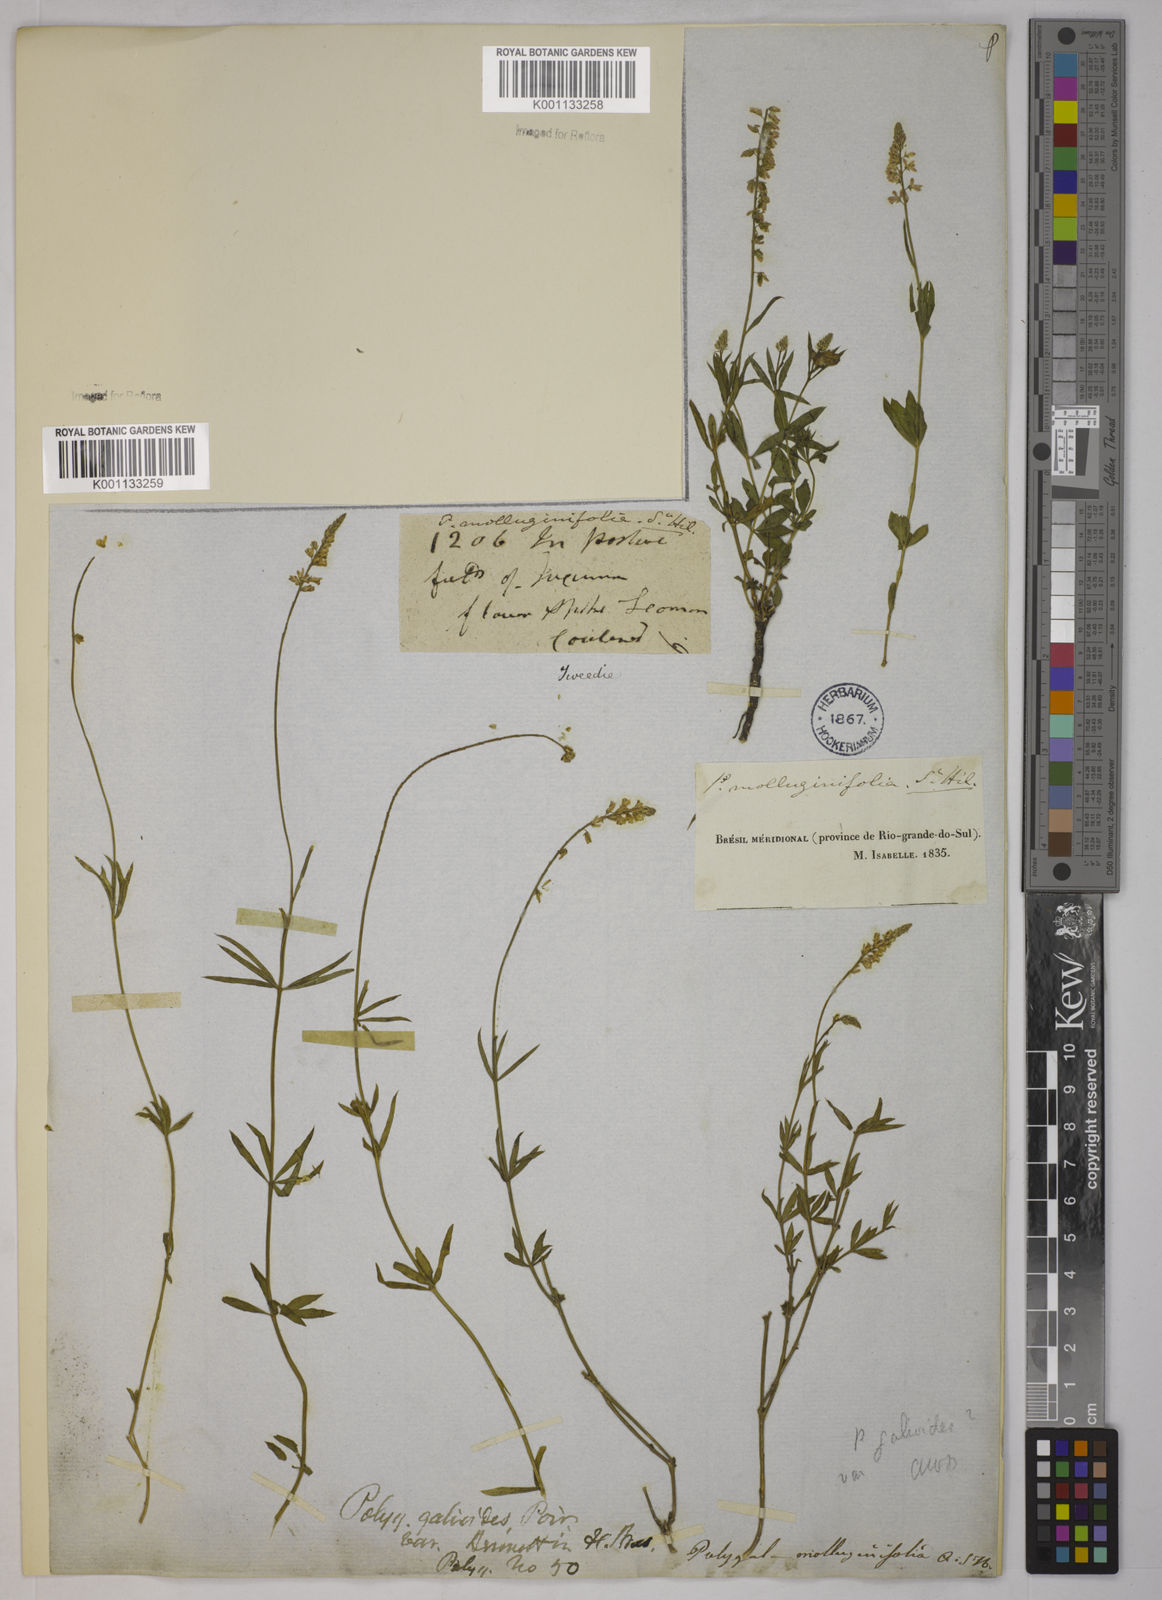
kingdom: Plantae
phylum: Tracheophyta
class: Magnoliopsida
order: Fabales
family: Polygalaceae
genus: Polygala
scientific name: Polygala asperuloides
